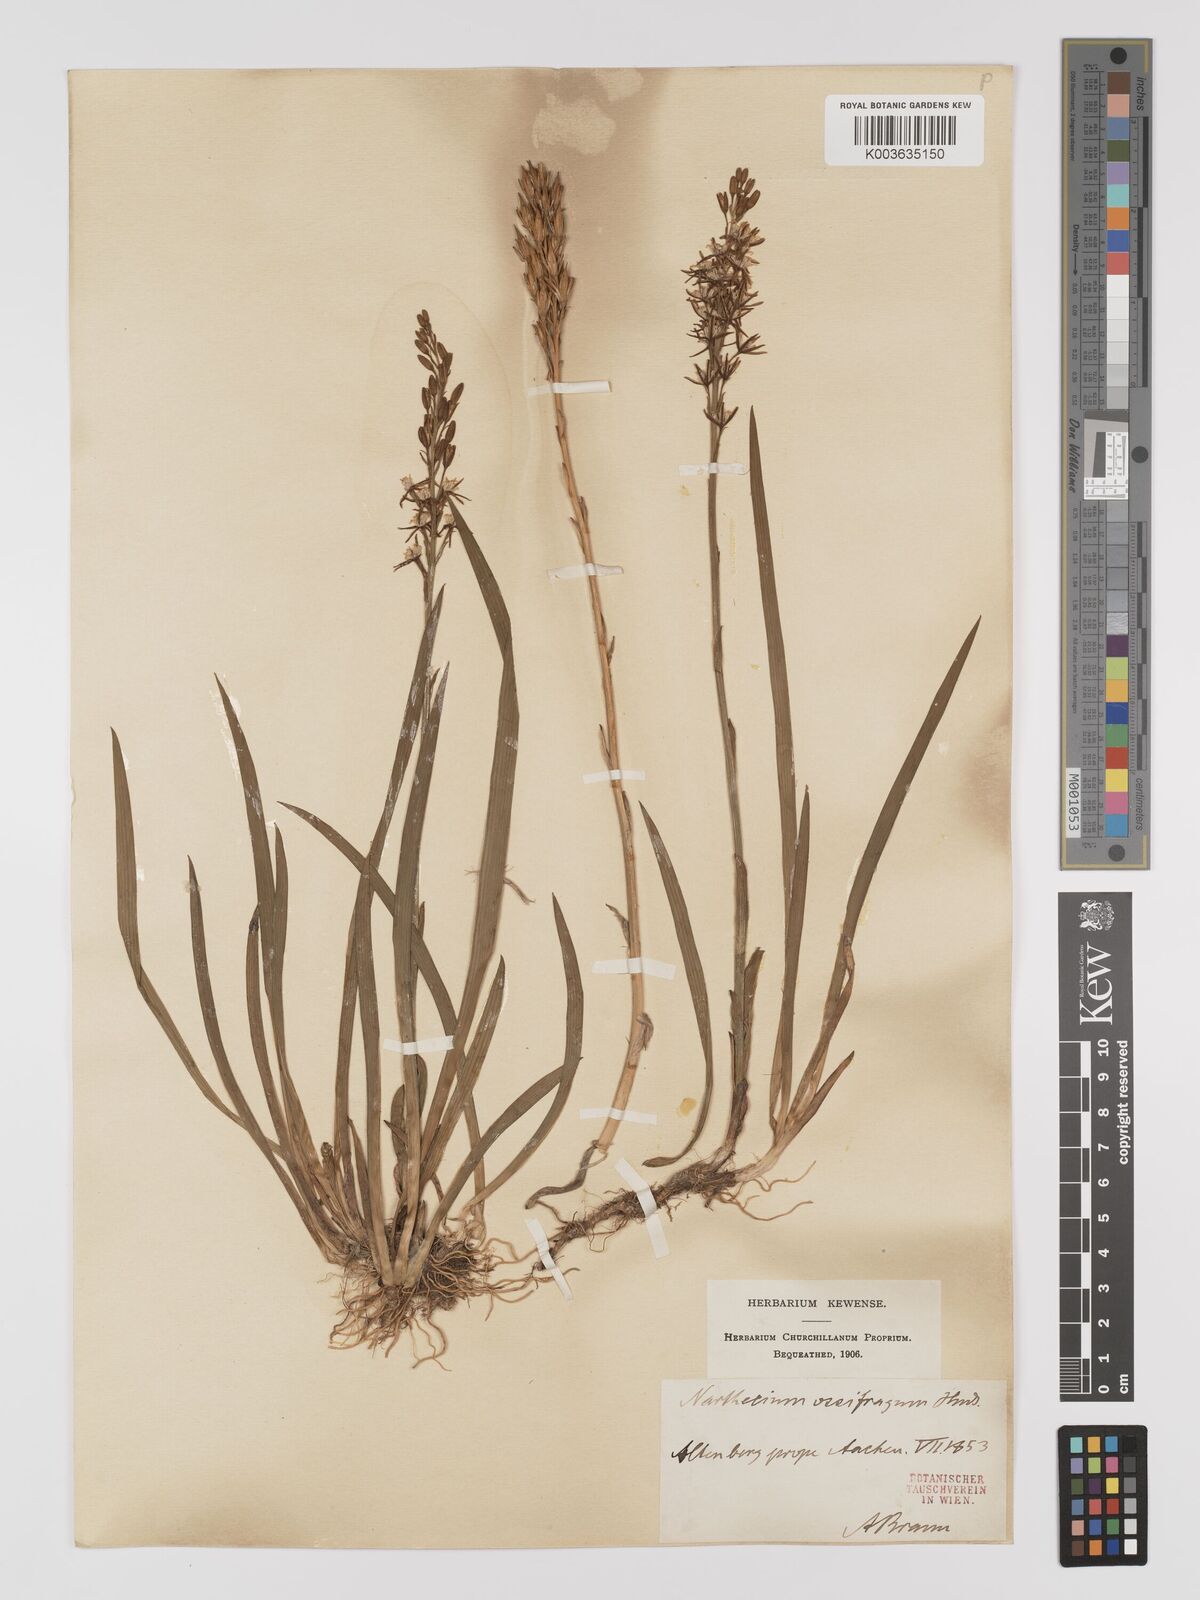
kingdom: Plantae
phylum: Tracheophyta
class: Liliopsida
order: Dioscoreales
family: Nartheciaceae
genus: Narthecium
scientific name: Narthecium ossifragum
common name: Bog asphodel
